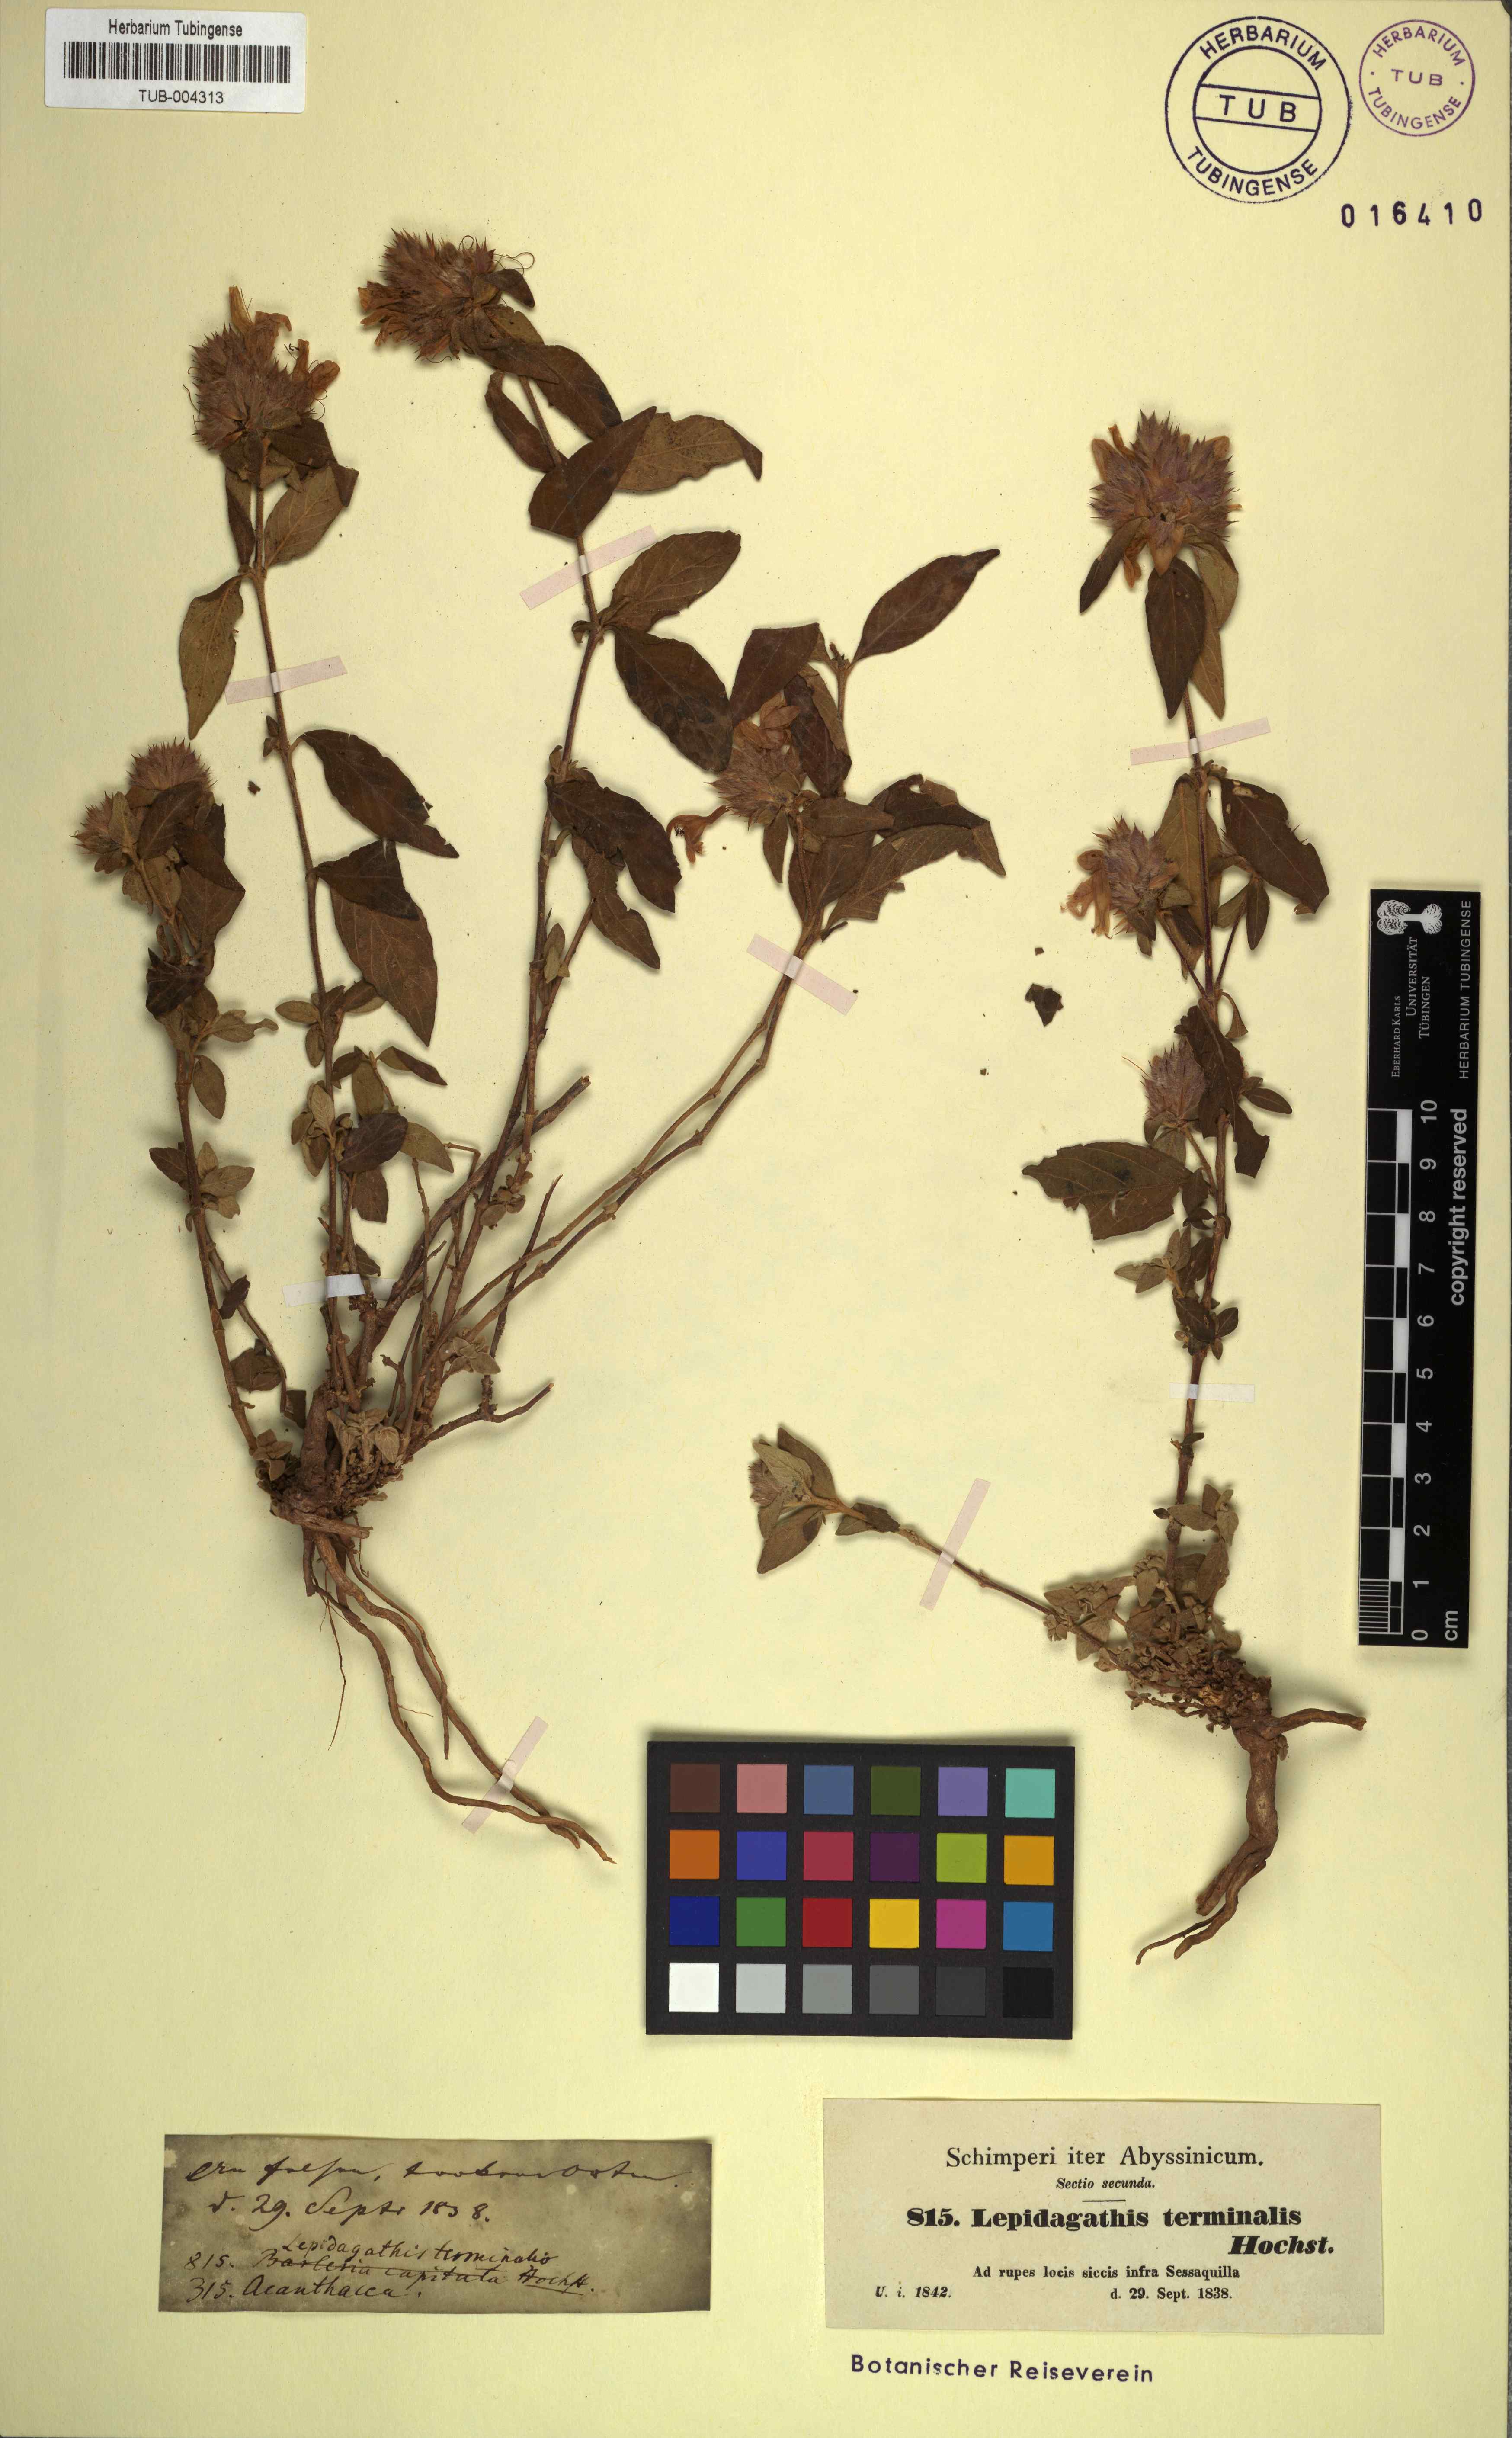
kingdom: Plantae
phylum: Tracheophyta
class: Magnoliopsida
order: Lamiales
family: Acanthaceae
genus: Lepidagathis
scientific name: Lepidagathis scariosa
